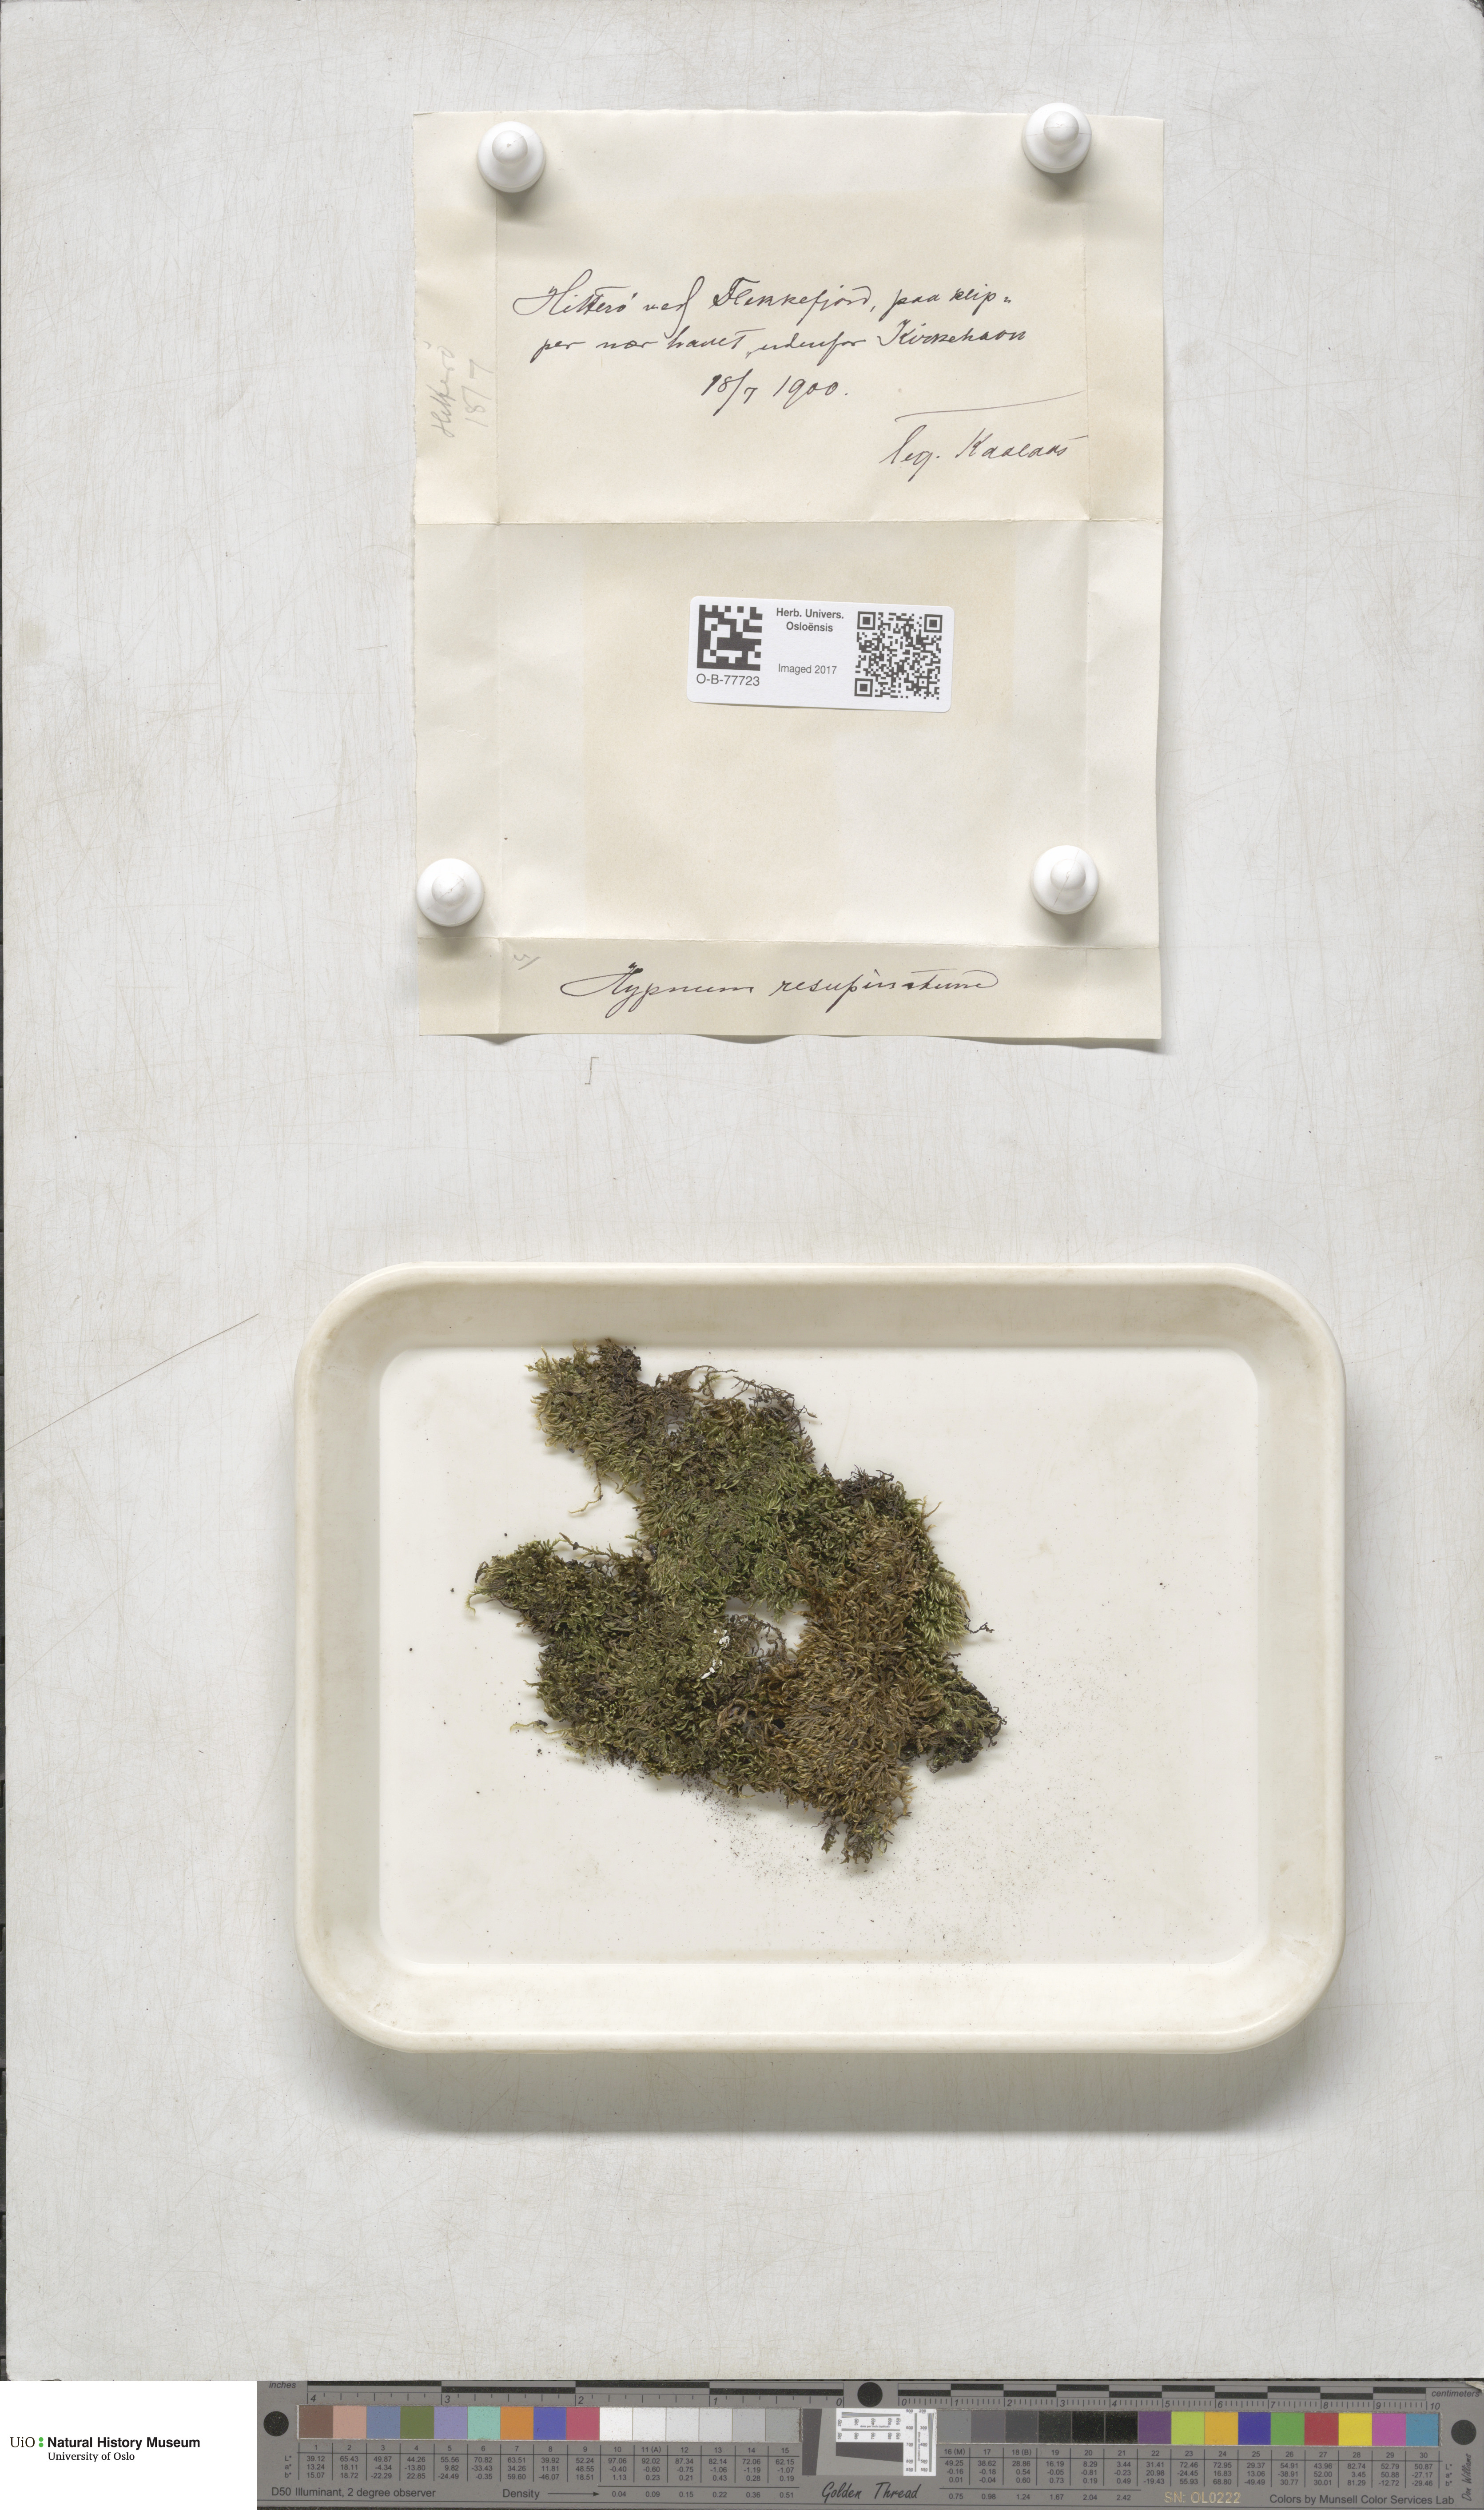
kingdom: Plantae
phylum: Bryophyta
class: Bryopsida
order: Hypnales
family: Hypnaceae
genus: Hypnum
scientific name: Hypnum resupinatum
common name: Supine plait-moss
